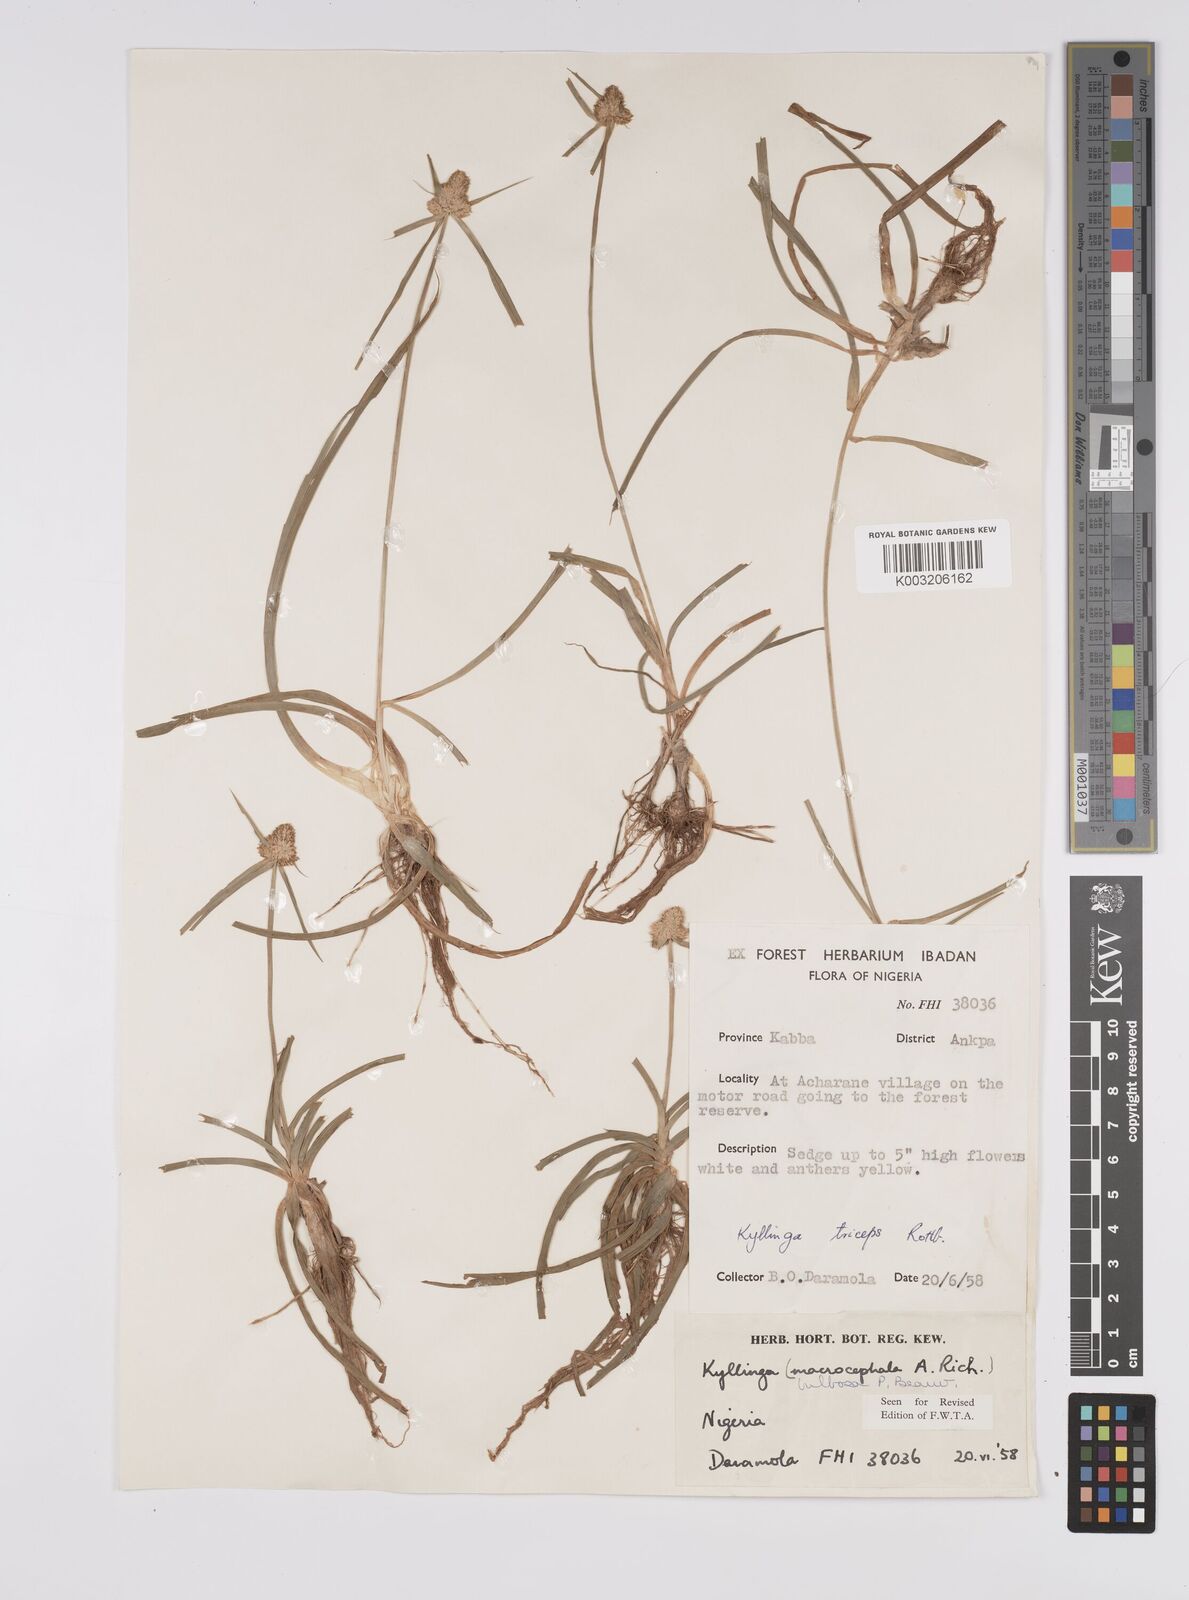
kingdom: Plantae
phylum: Tracheophyta
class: Liliopsida
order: Poales
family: Cyperaceae
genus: Cyperus
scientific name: Cyperus
